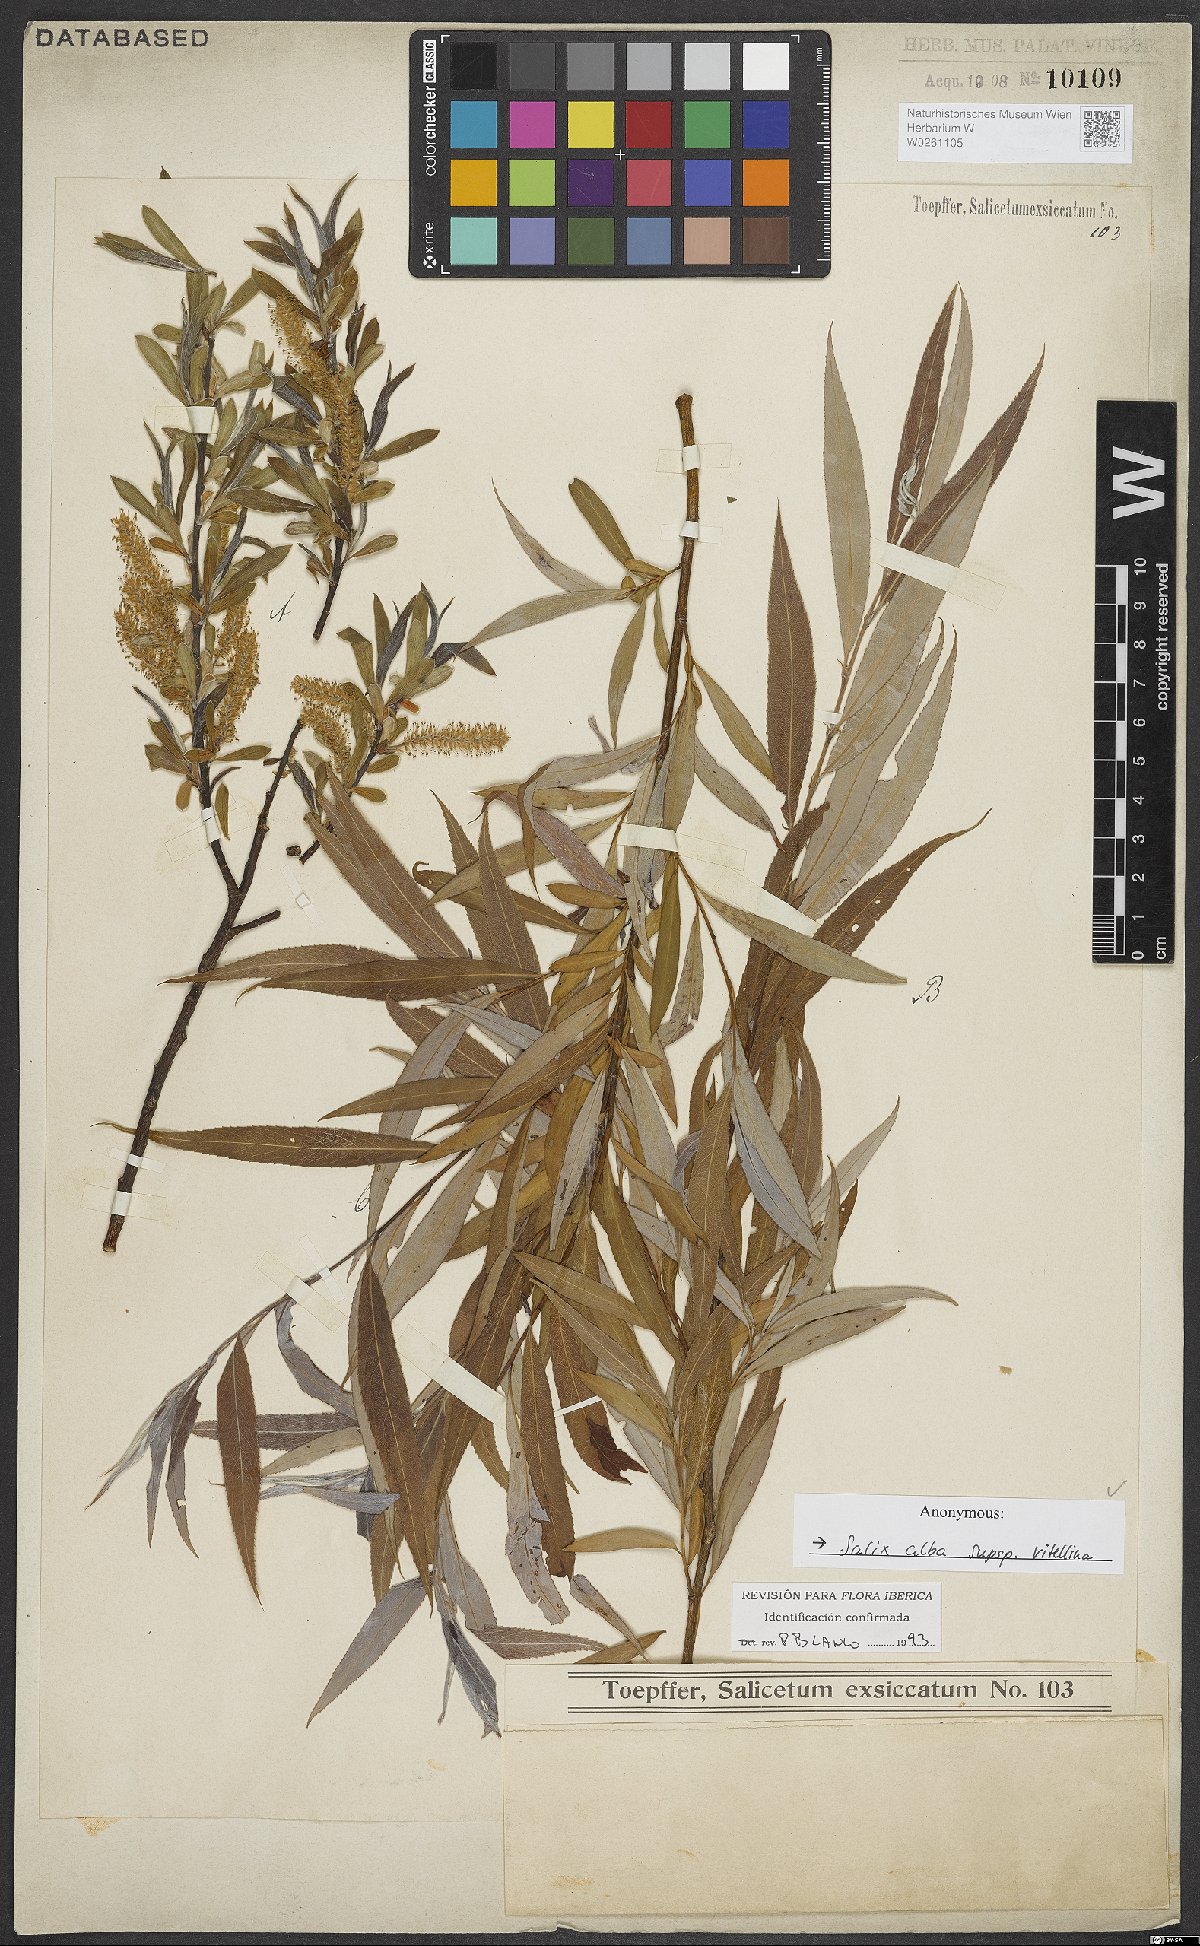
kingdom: Plantae
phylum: Tracheophyta
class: Magnoliopsida
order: Malpighiales
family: Salicaceae
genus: Salix
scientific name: Salix alba
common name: White willow
